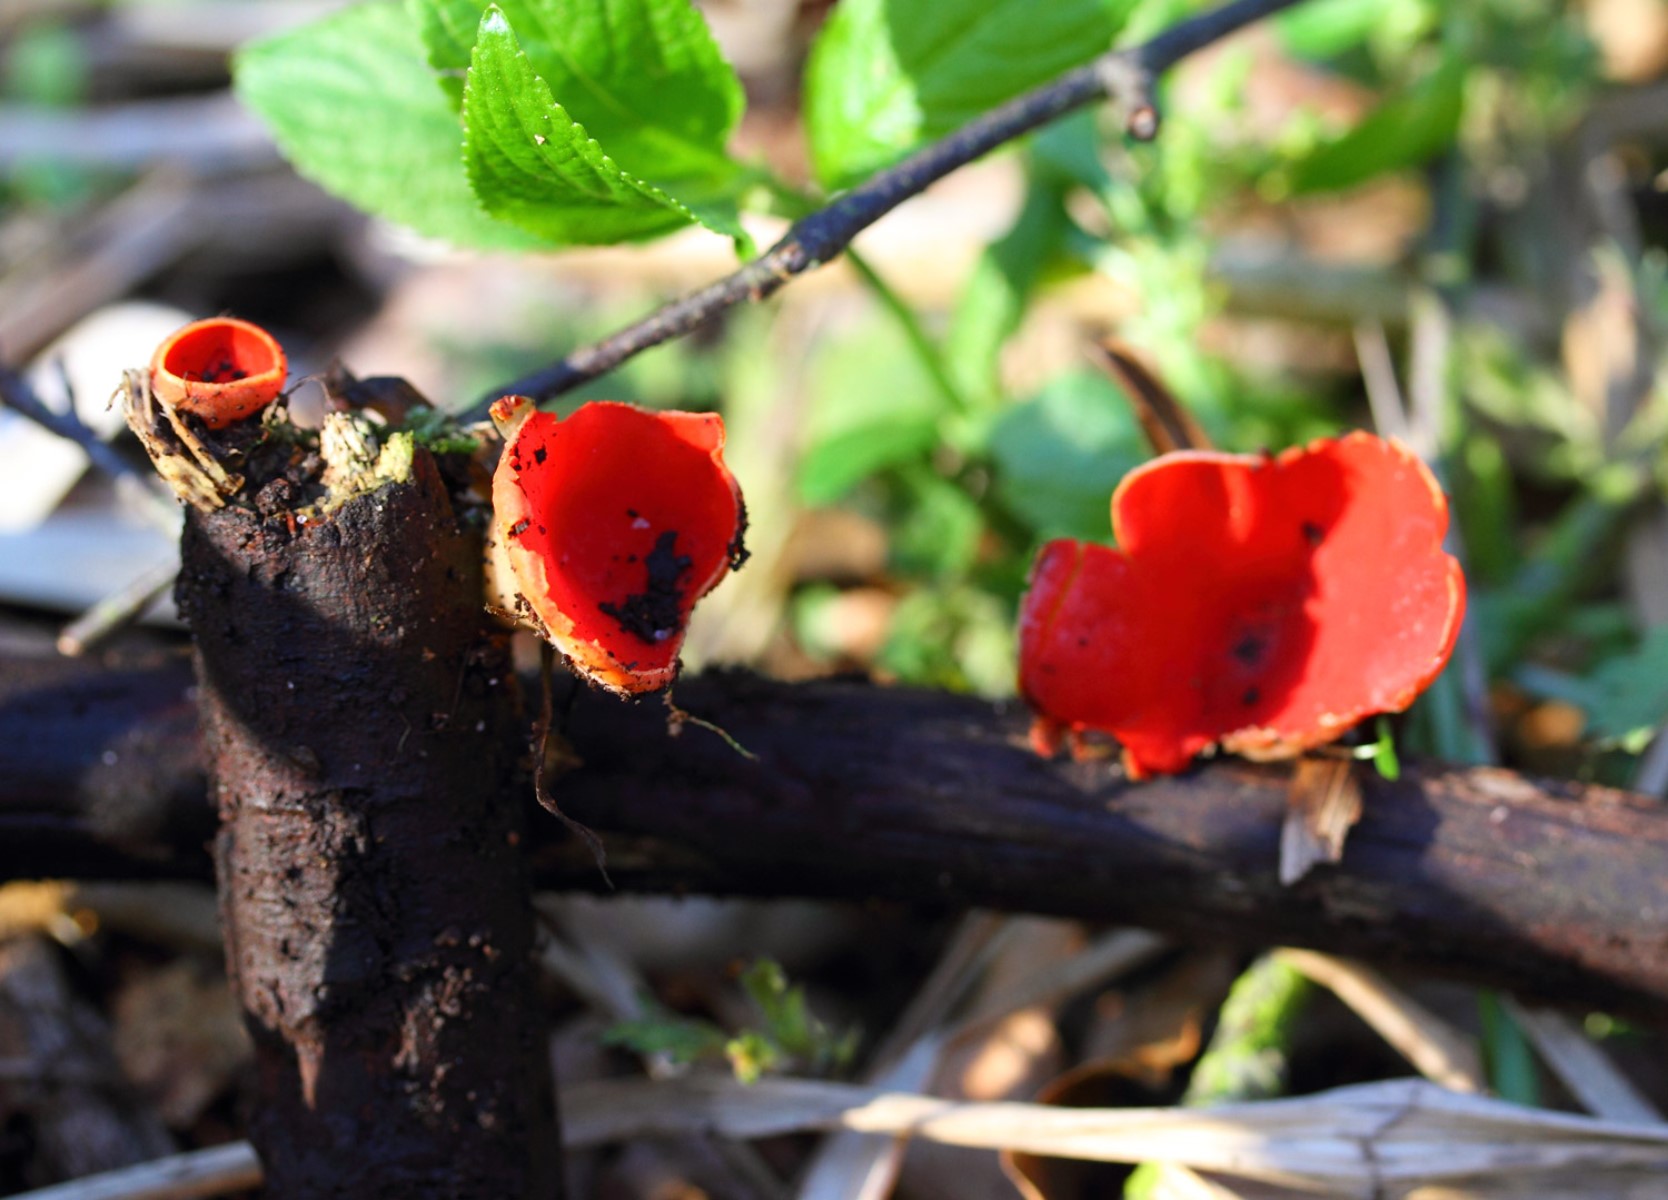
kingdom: Fungi
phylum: Ascomycota
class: Pezizomycetes
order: Pezizales
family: Sarcoscyphaceae
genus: Sarcoscypha
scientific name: Sarcoscypha austriaca
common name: krølhåret pragtbæger
